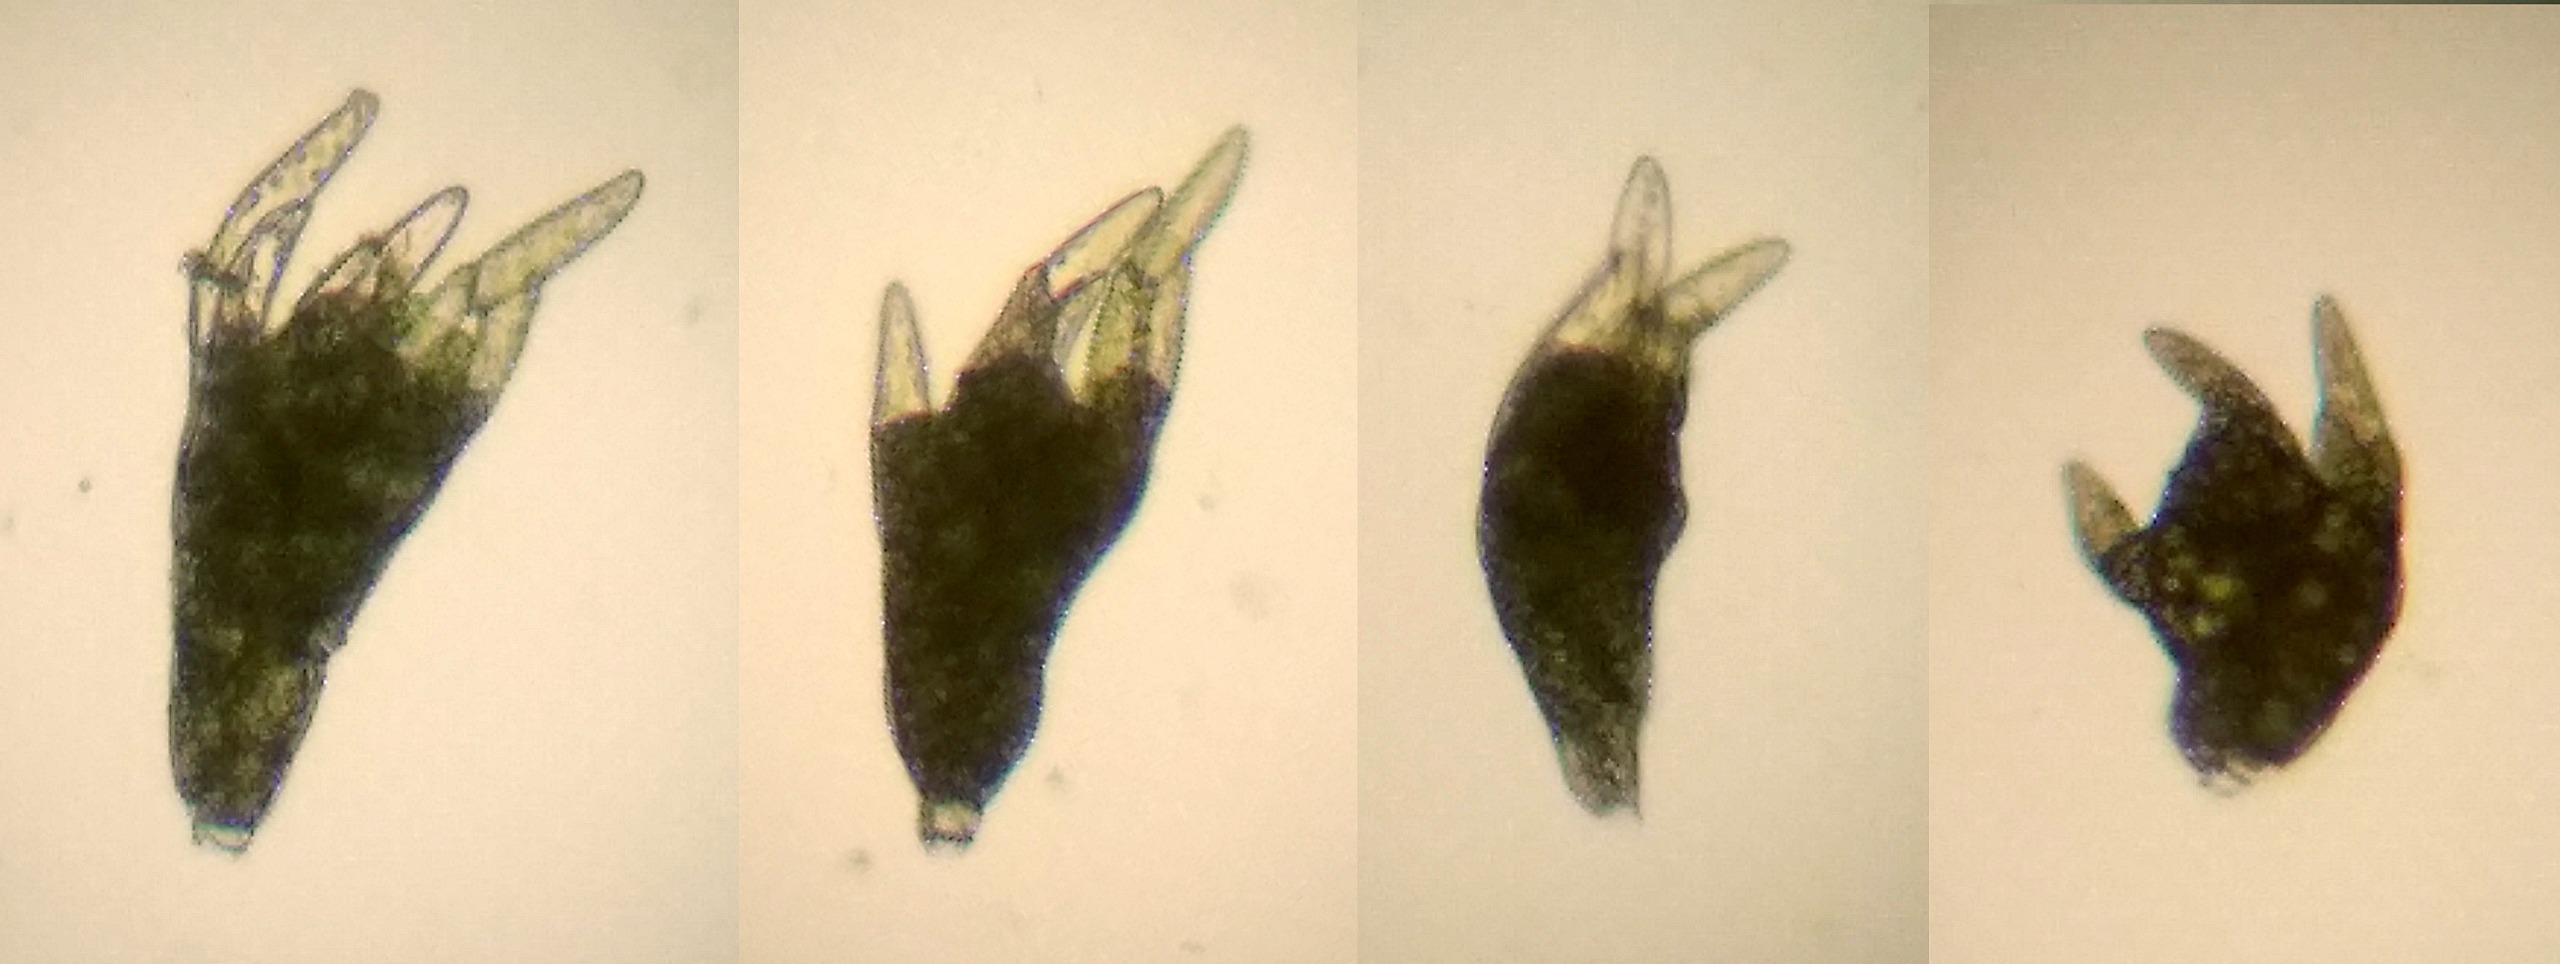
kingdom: Plantae
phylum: Bryophyta
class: Bryopsida
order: Bryales
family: Mniaceae
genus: Pohlia
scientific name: Pohlia annotina
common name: Blød nikkemos
